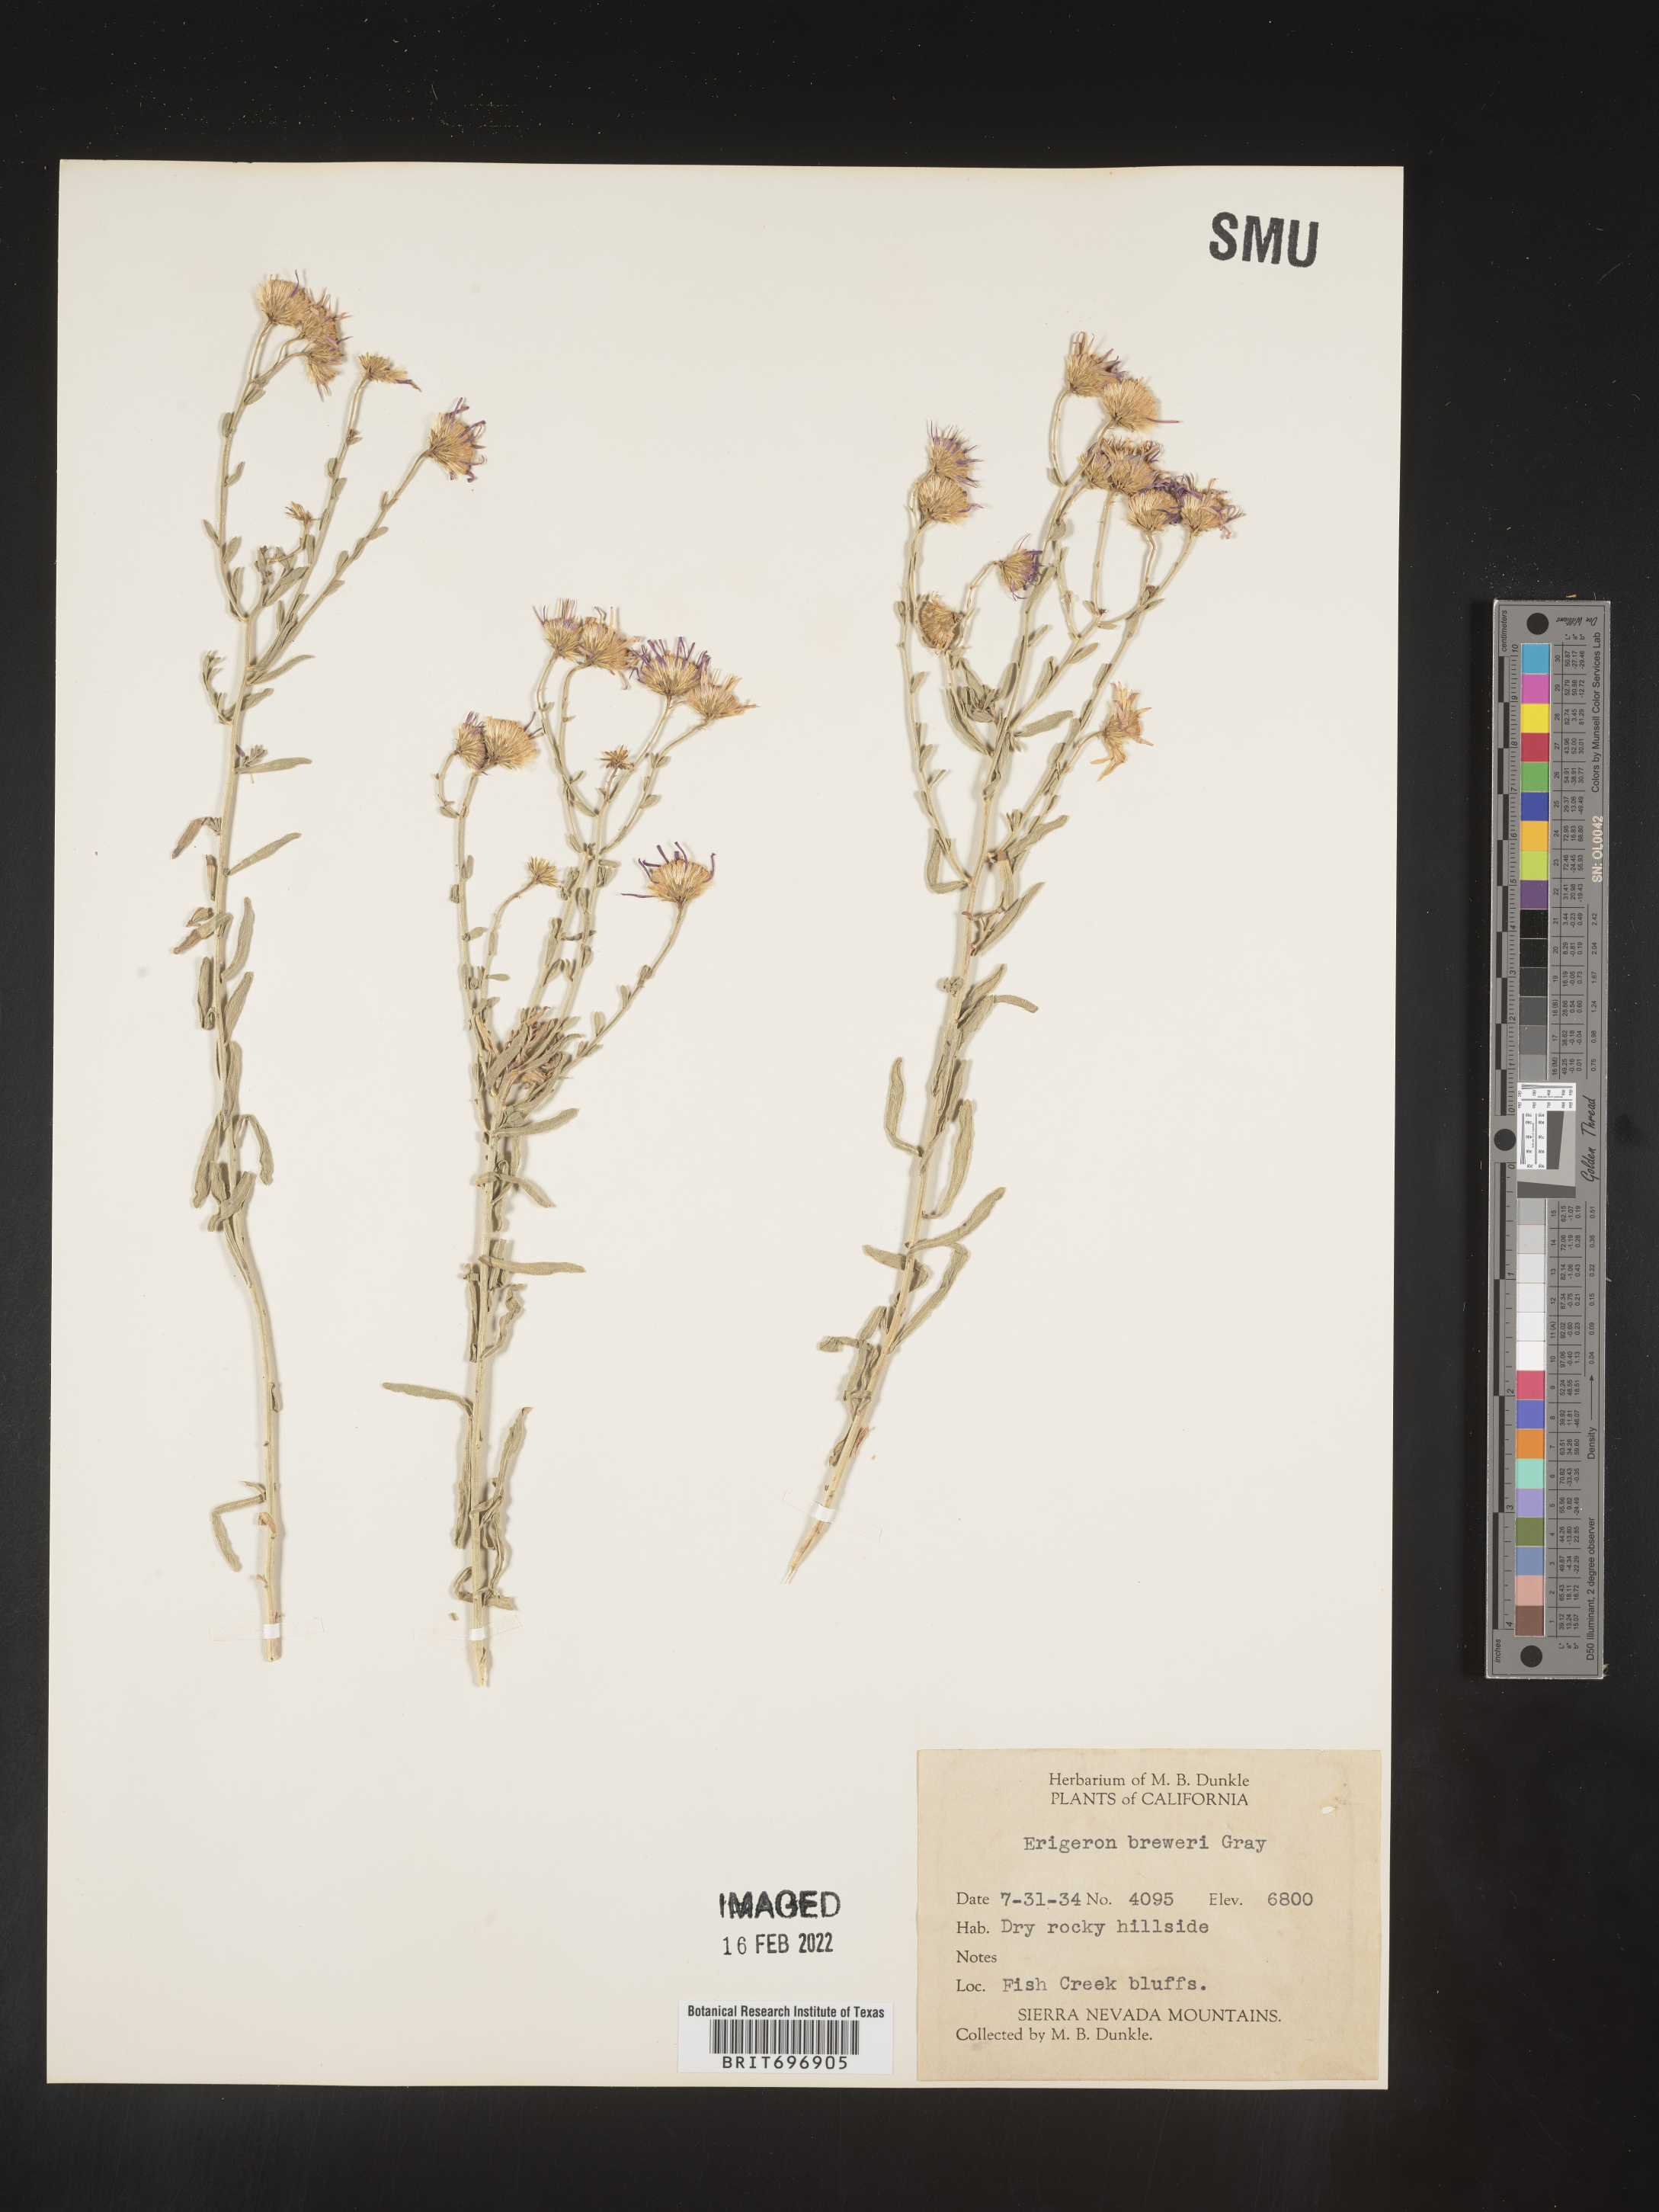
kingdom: Plantae
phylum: Tracheophyta
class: Magnoliopsida
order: Asterales
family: Asteraceae
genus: Erigeron
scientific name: Erigeron breweri
